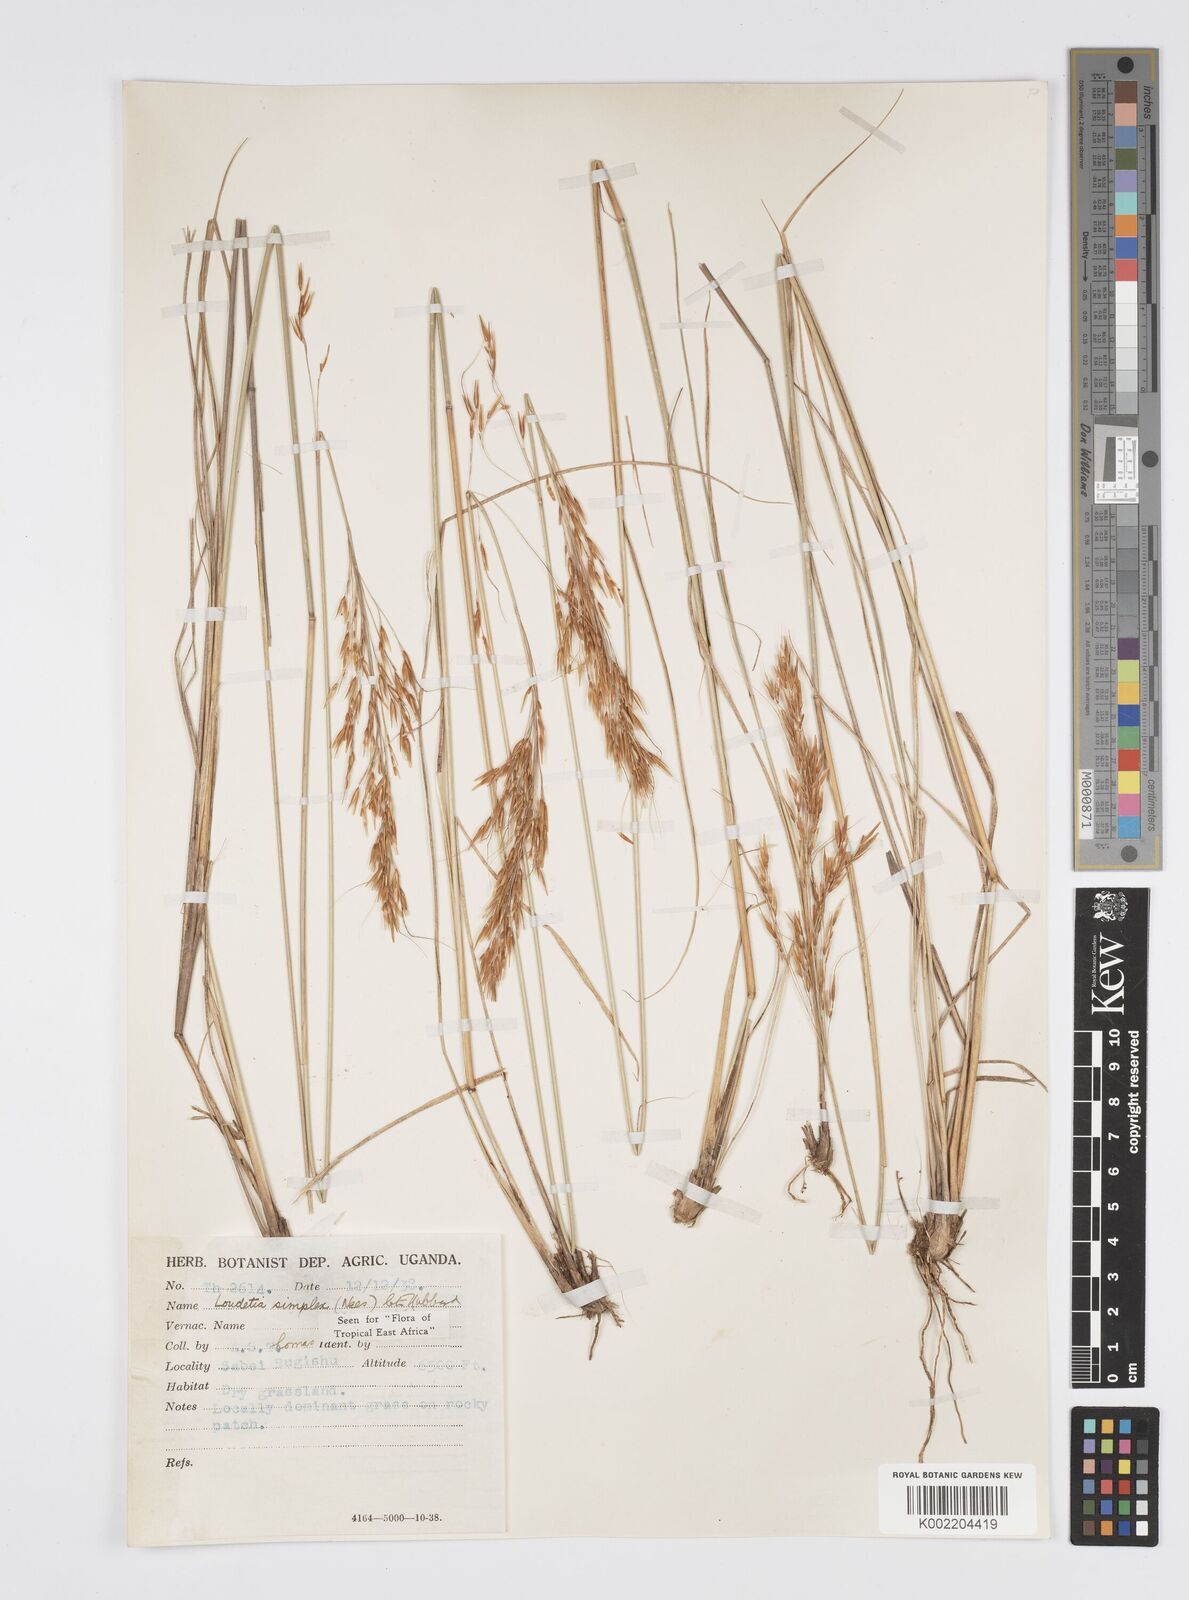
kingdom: Plantae
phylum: Tracheophyta
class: Liliopsida
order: Poales
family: Poaceae
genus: Loudetia
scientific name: Loudetia simplex
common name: Common russet grass
